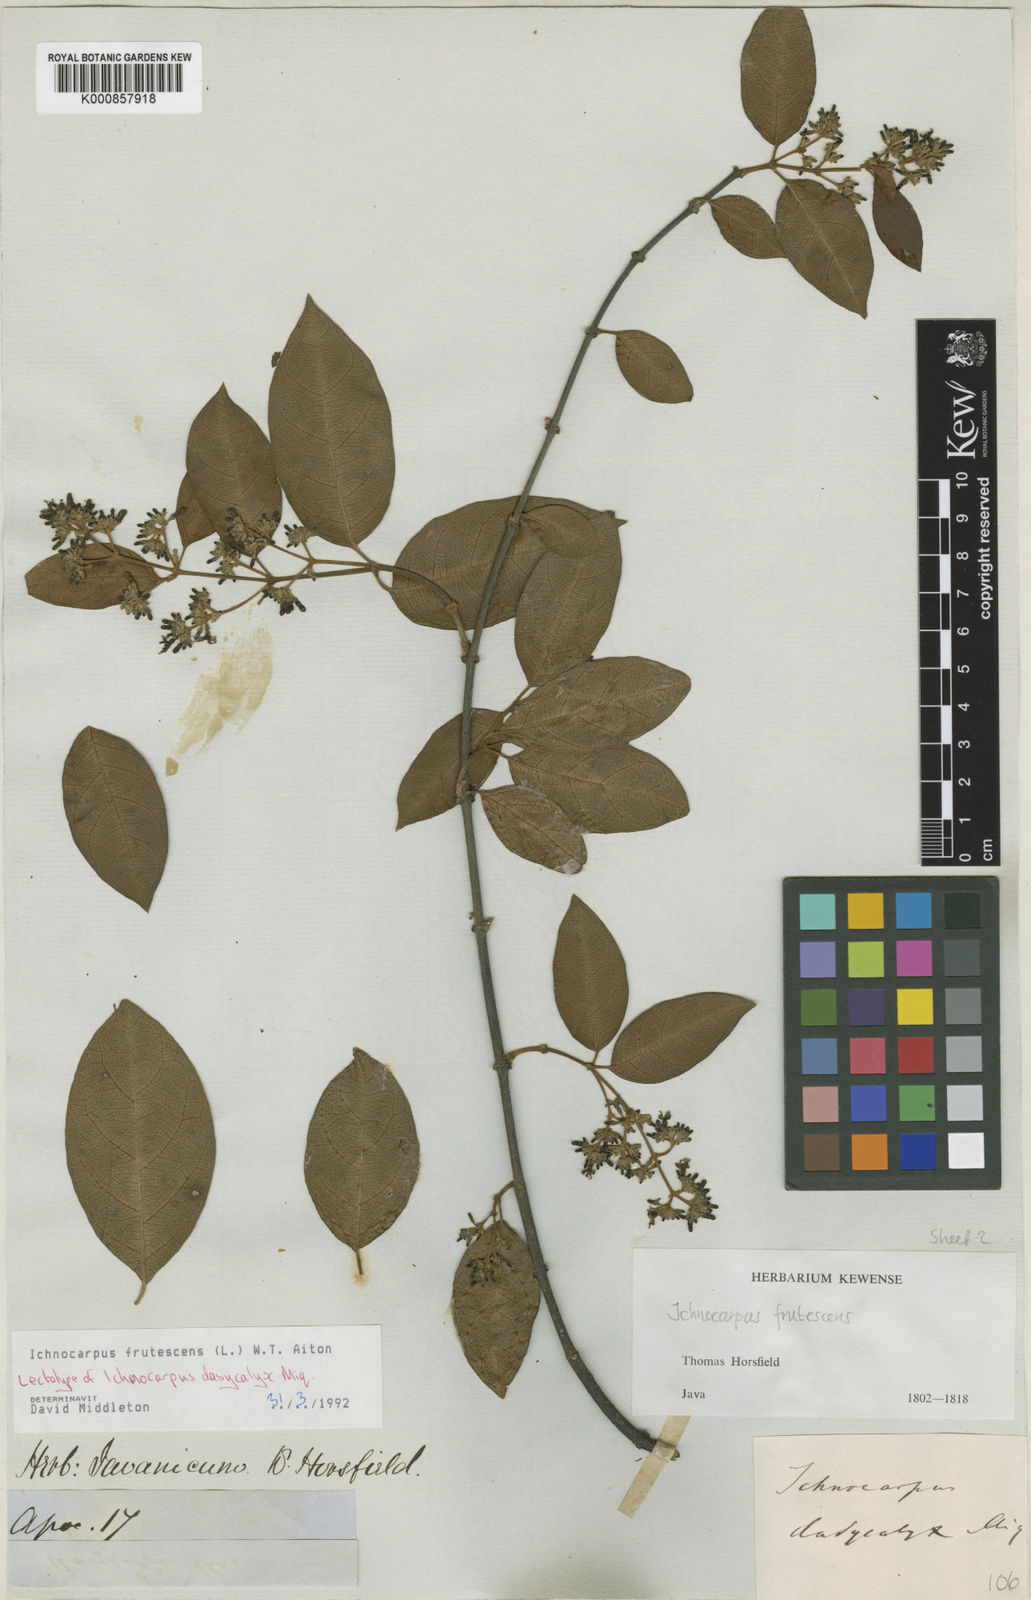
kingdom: Plantae
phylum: Tracheophyta
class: Magnoliopsida
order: Gentianales
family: Apocynaceae
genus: Ichnocarpus
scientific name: Ichnocarpus frutescens
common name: Ichnocarpus
